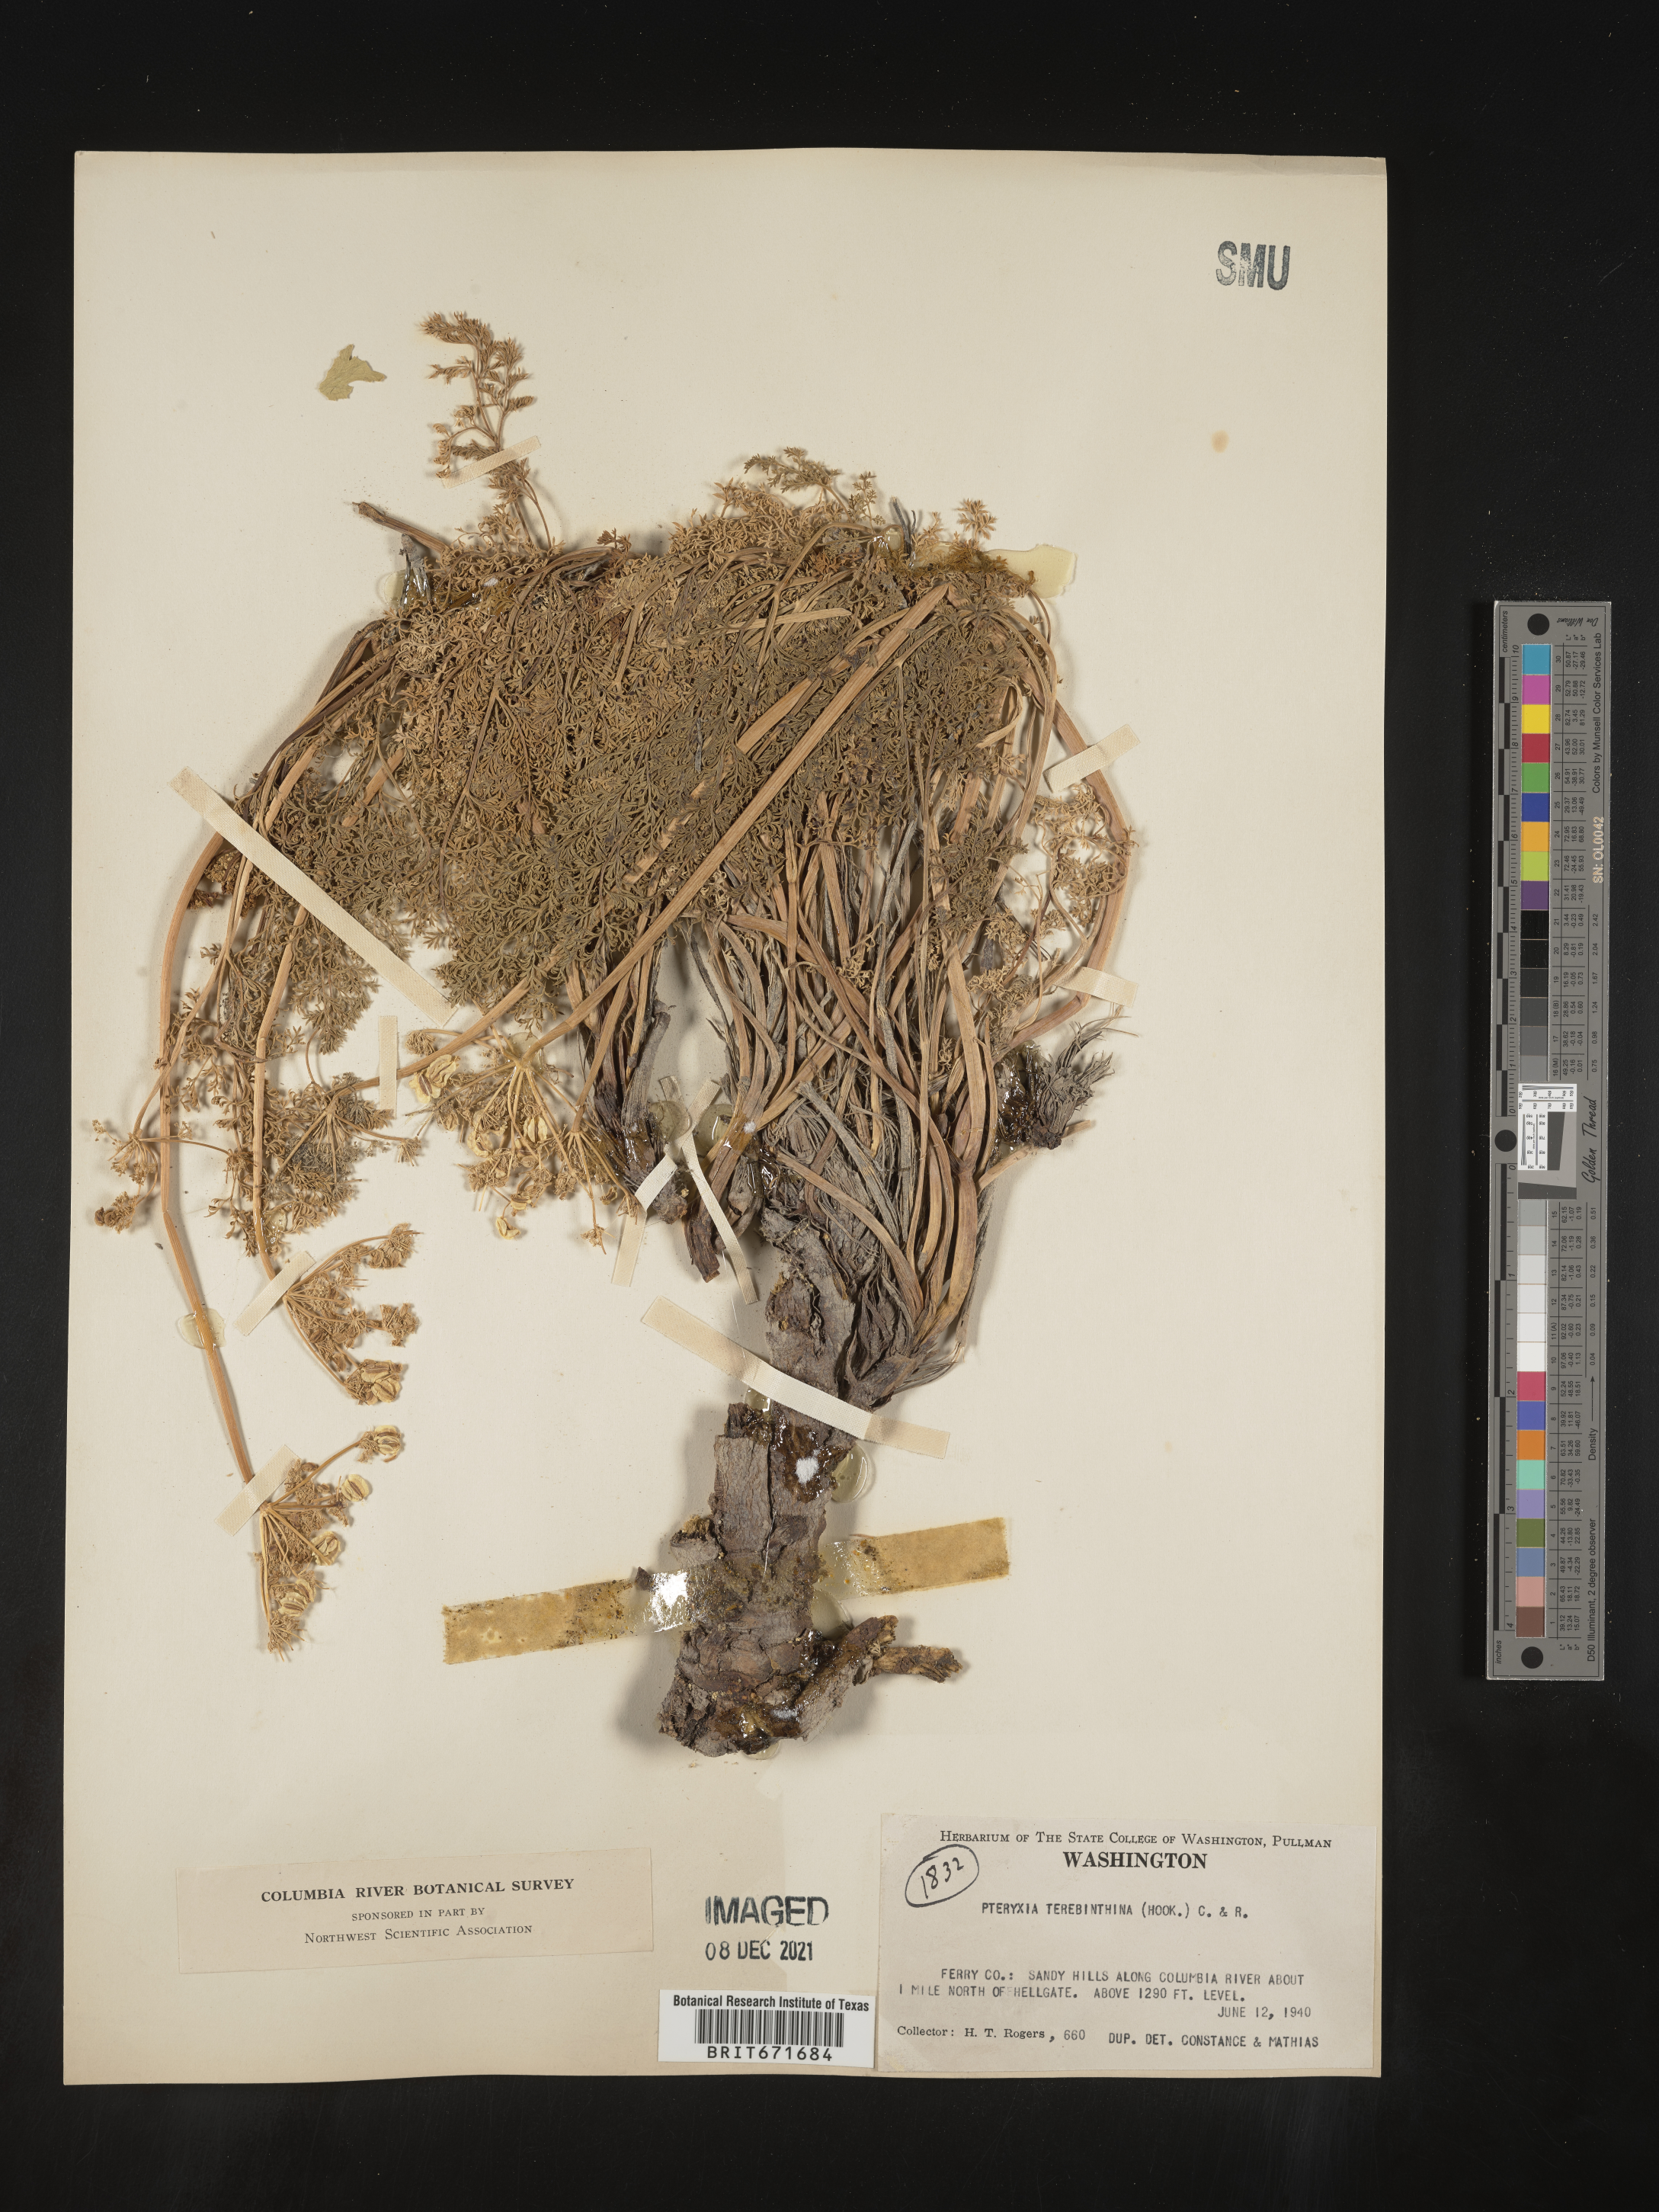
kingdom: Plantae
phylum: Tracheophyta
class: Magnoliopsida
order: Apiales
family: Apiaceae
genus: Pteryxia
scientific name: Pteryxia terebinthina
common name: Turpentine wavewing
